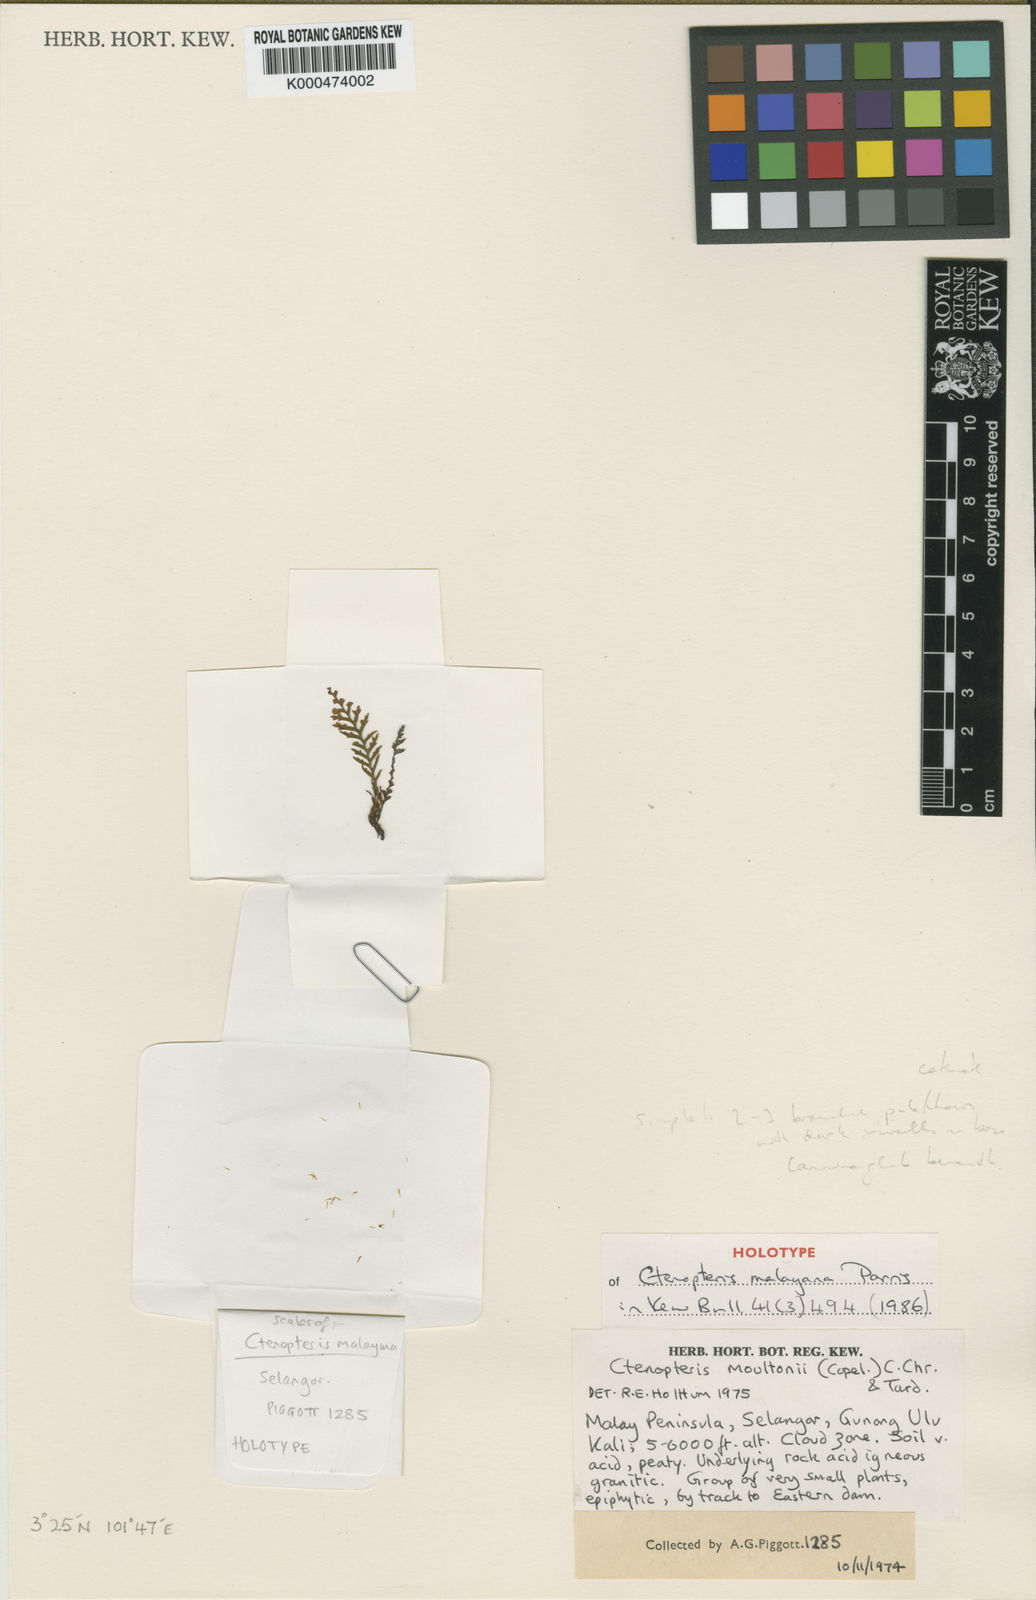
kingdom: Plantae
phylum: Tracheophyta
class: Polypodiopsida
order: Polypodiales
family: Polypodiaceae
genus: Ctenopterella
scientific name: Ctenopterella khaoluangensis
